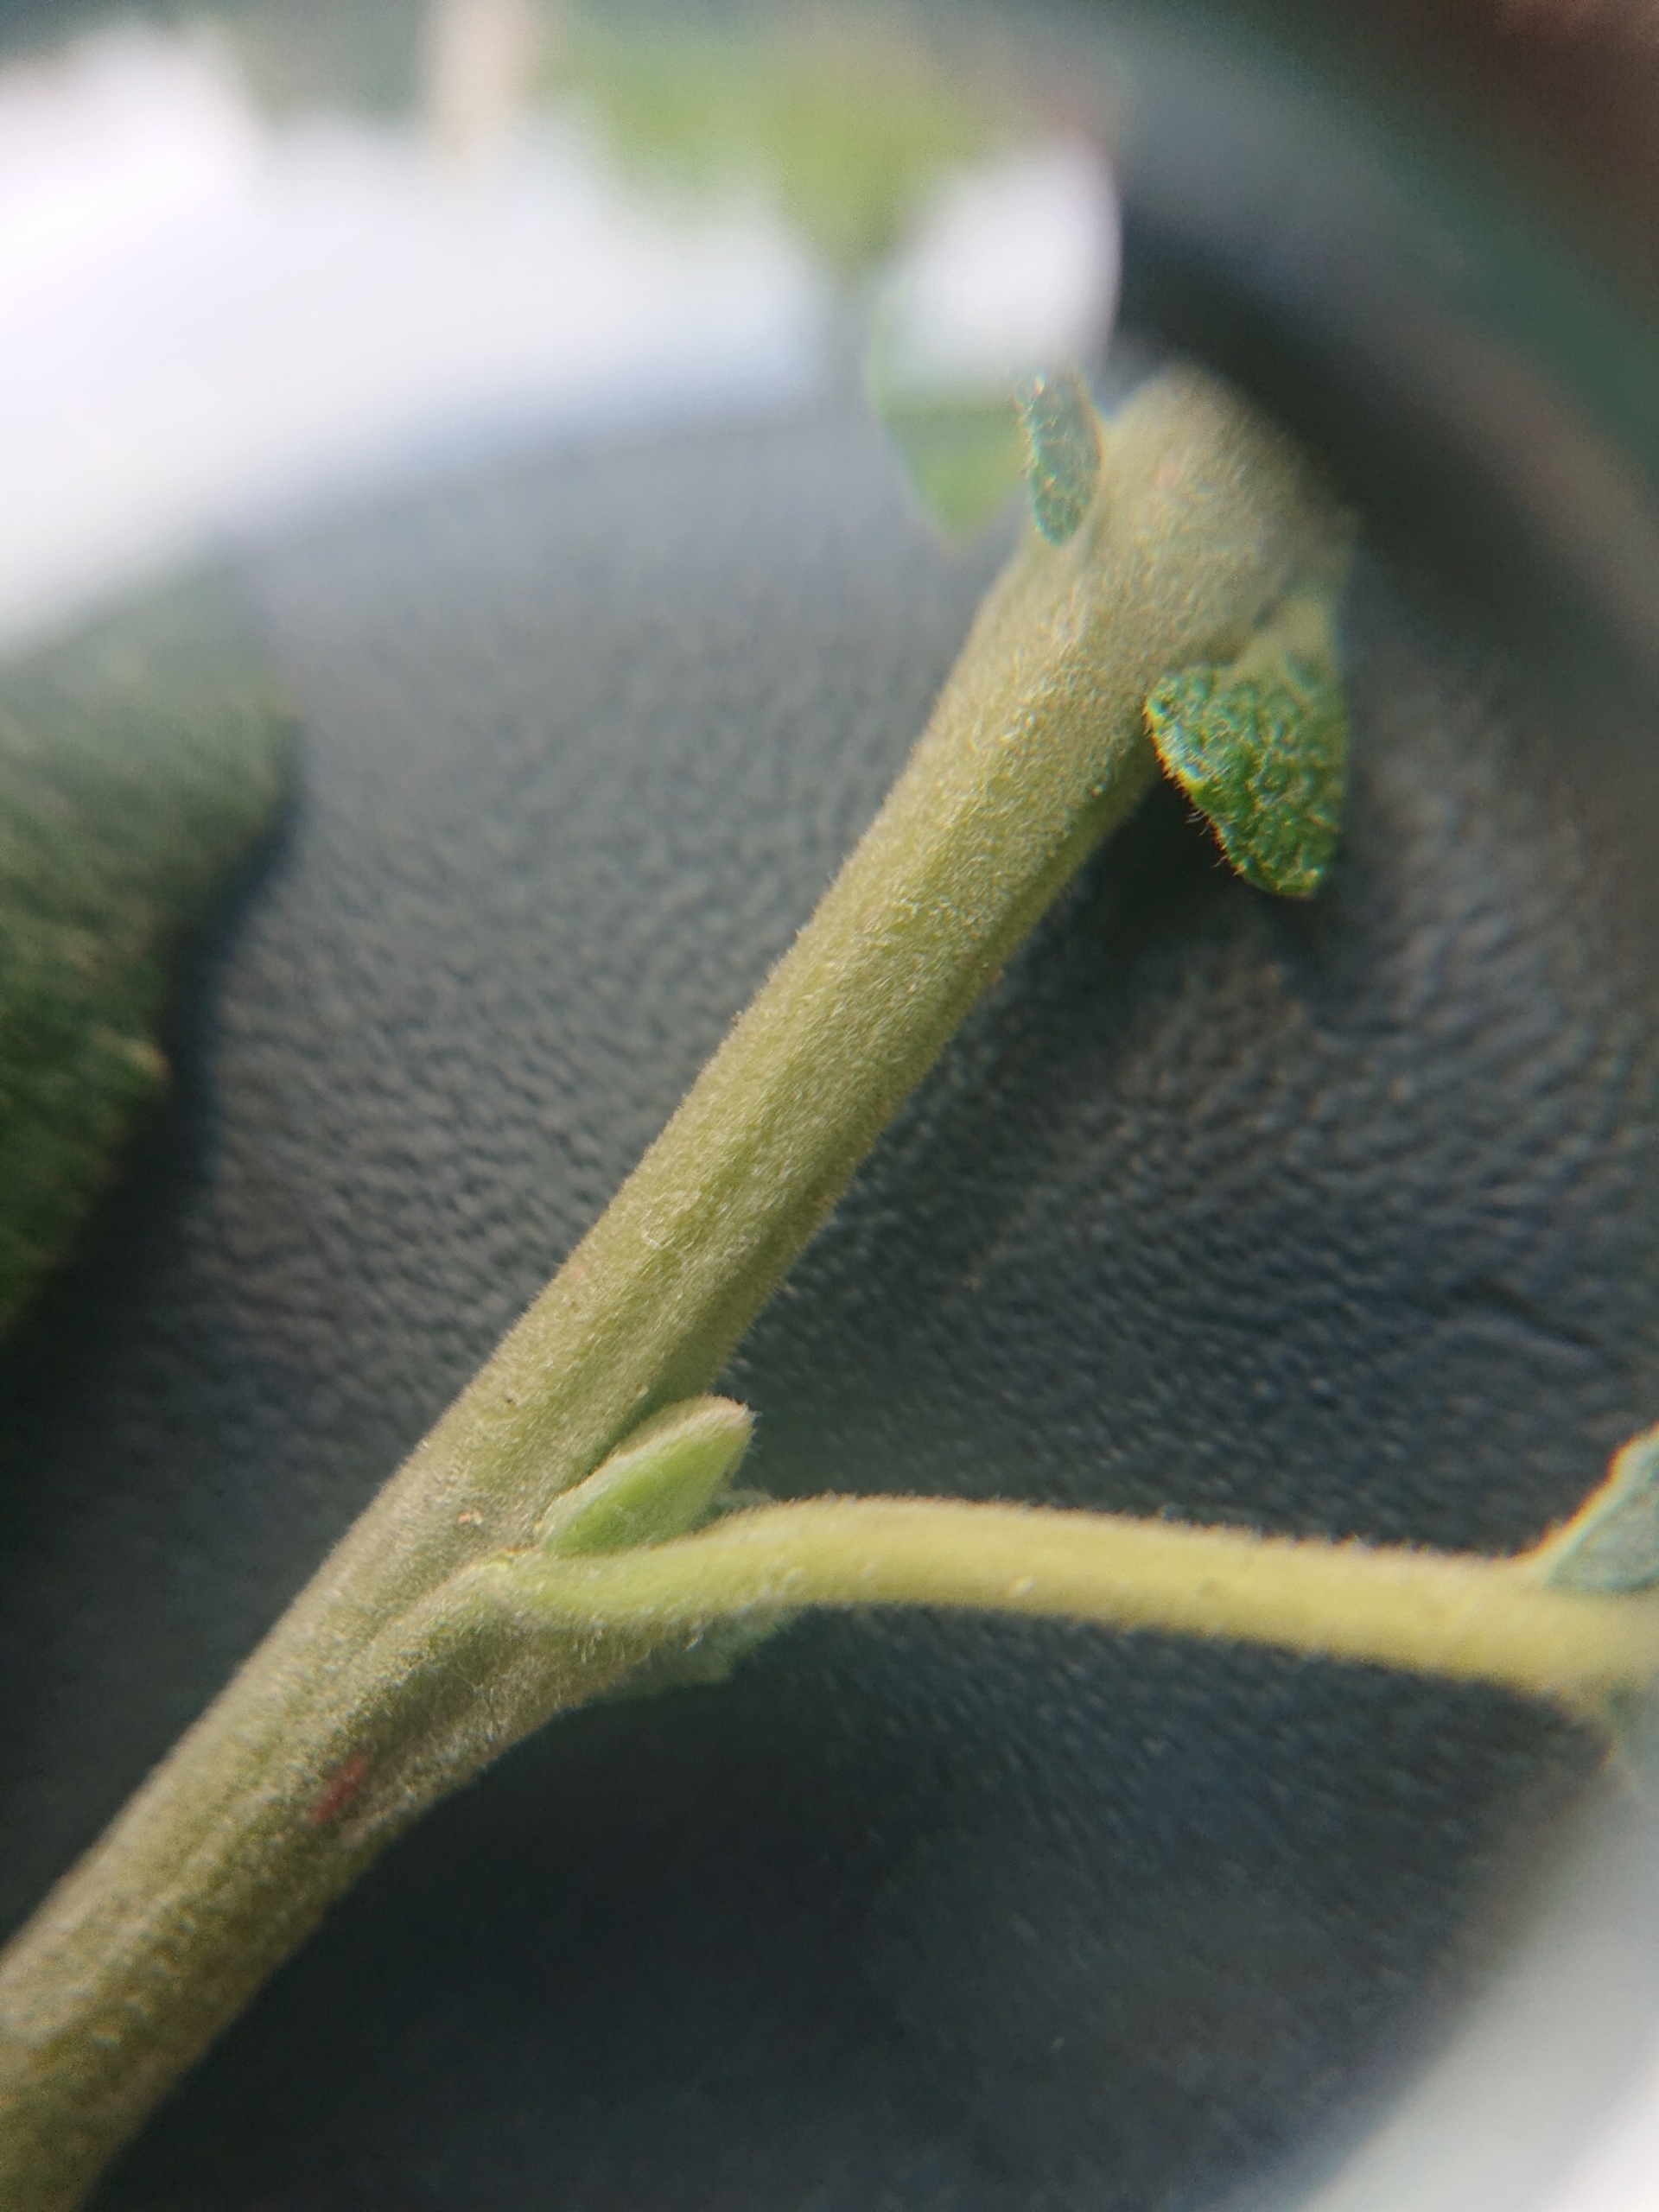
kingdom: Plantae
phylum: Tracheophyta
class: Magnoliopsida
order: Malpighiales
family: Salicaceae
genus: Salix
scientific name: Salix cinerea
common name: Grå-pil
